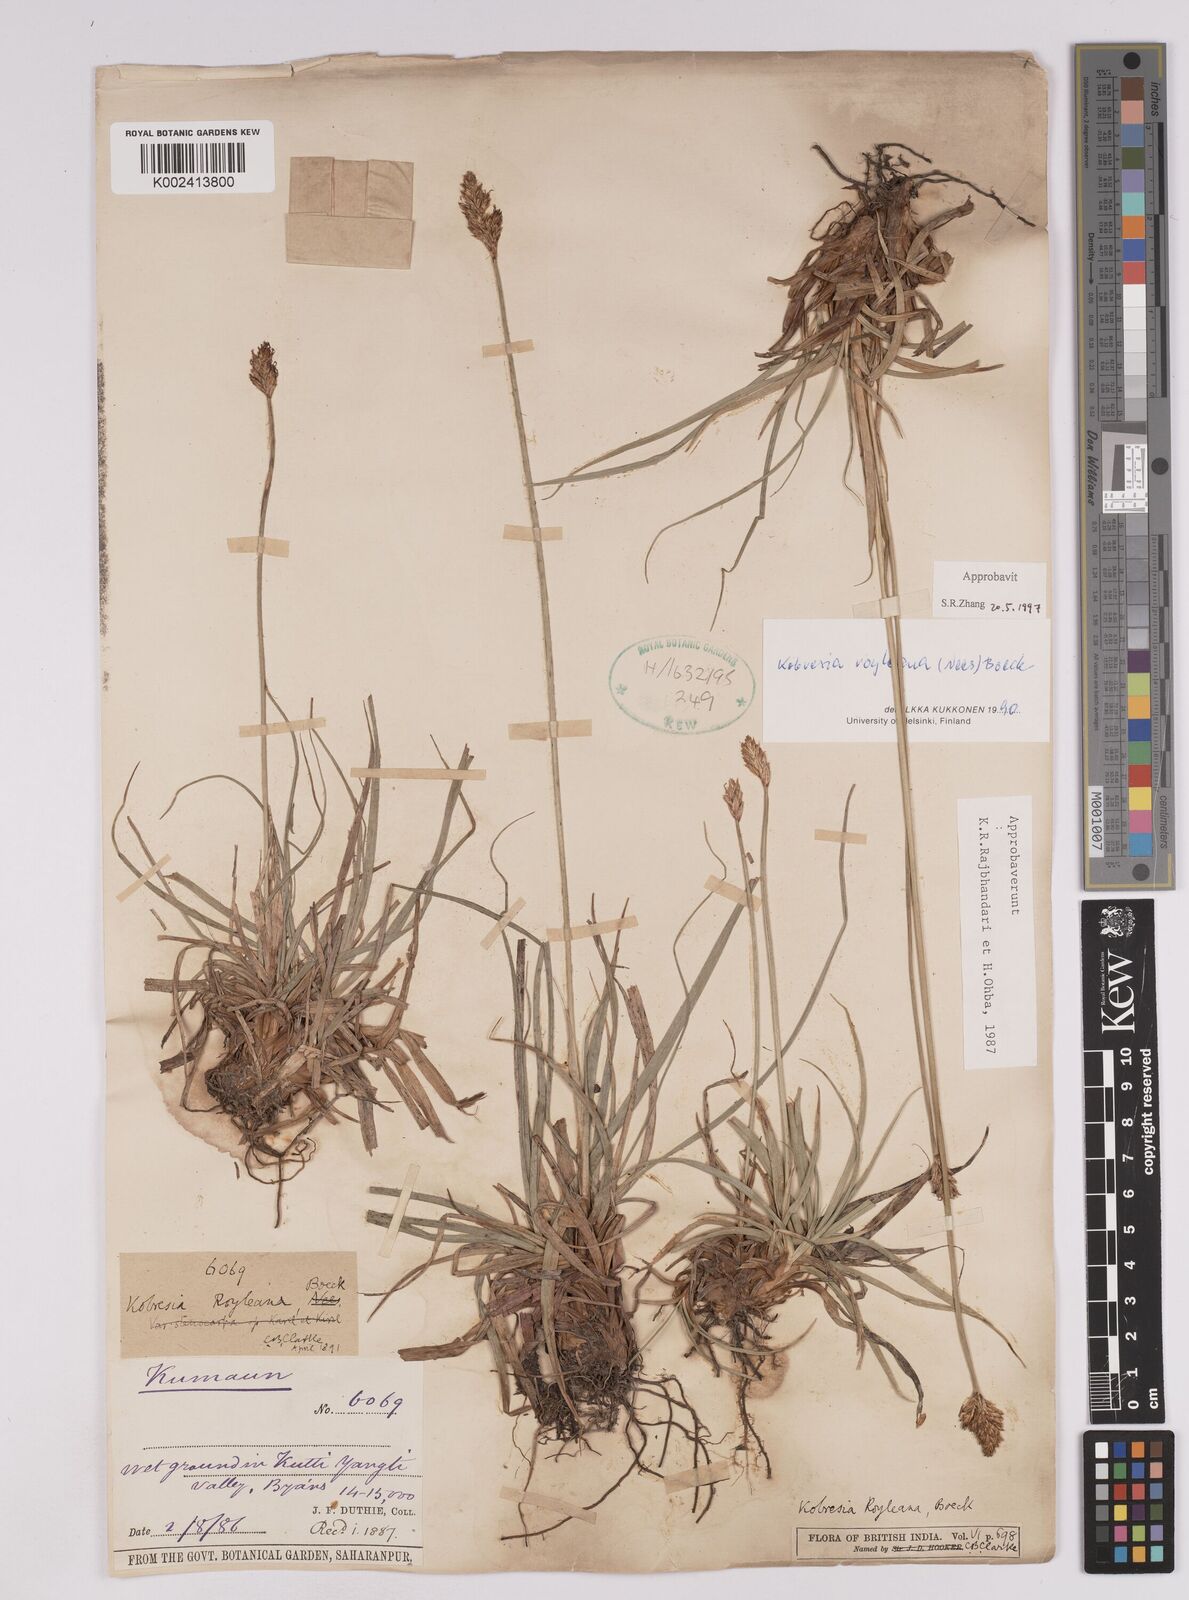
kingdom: Plantae
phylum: Tracheophyta
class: Liliopsida
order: Poales
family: Cyperaceae
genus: Carex
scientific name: Carex kokanica
